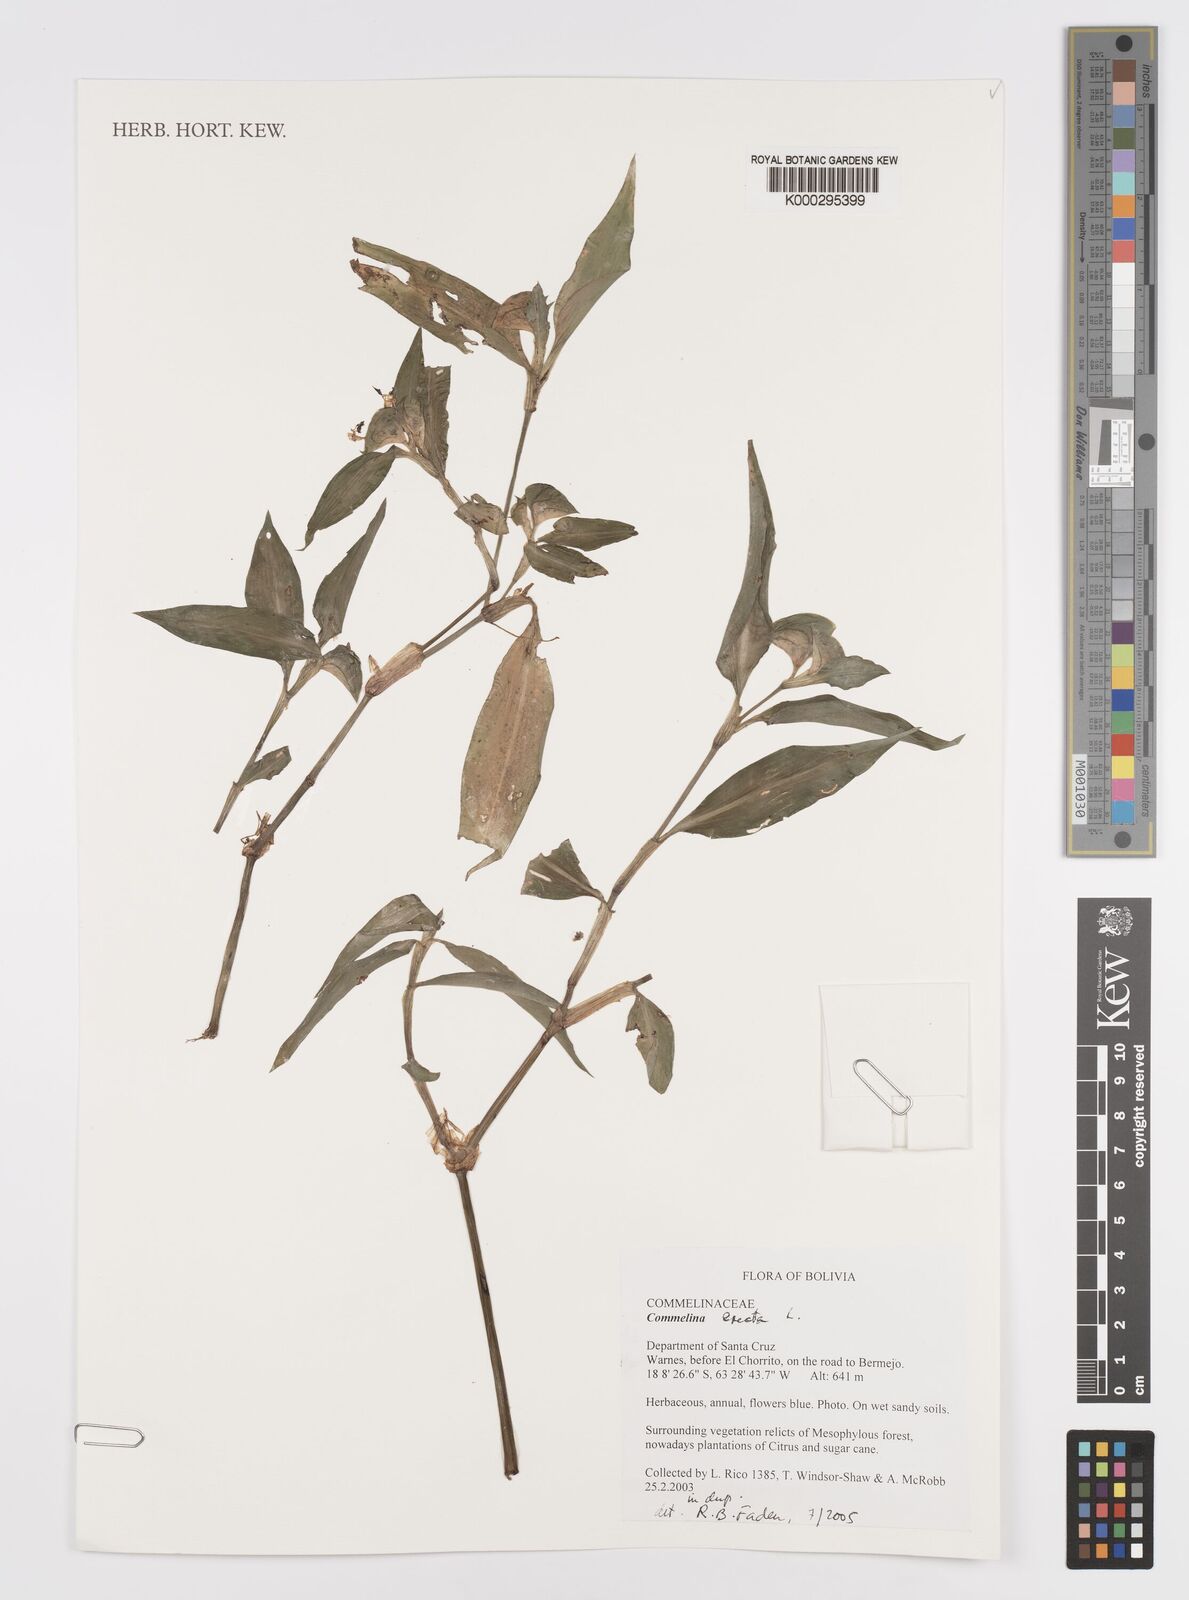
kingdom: Plantae
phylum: Tracheophyta
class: Liliopsida
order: Commelinales
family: Commelinaceae
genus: Commelina
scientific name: Commelina erecta
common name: Blousel blommetjie
